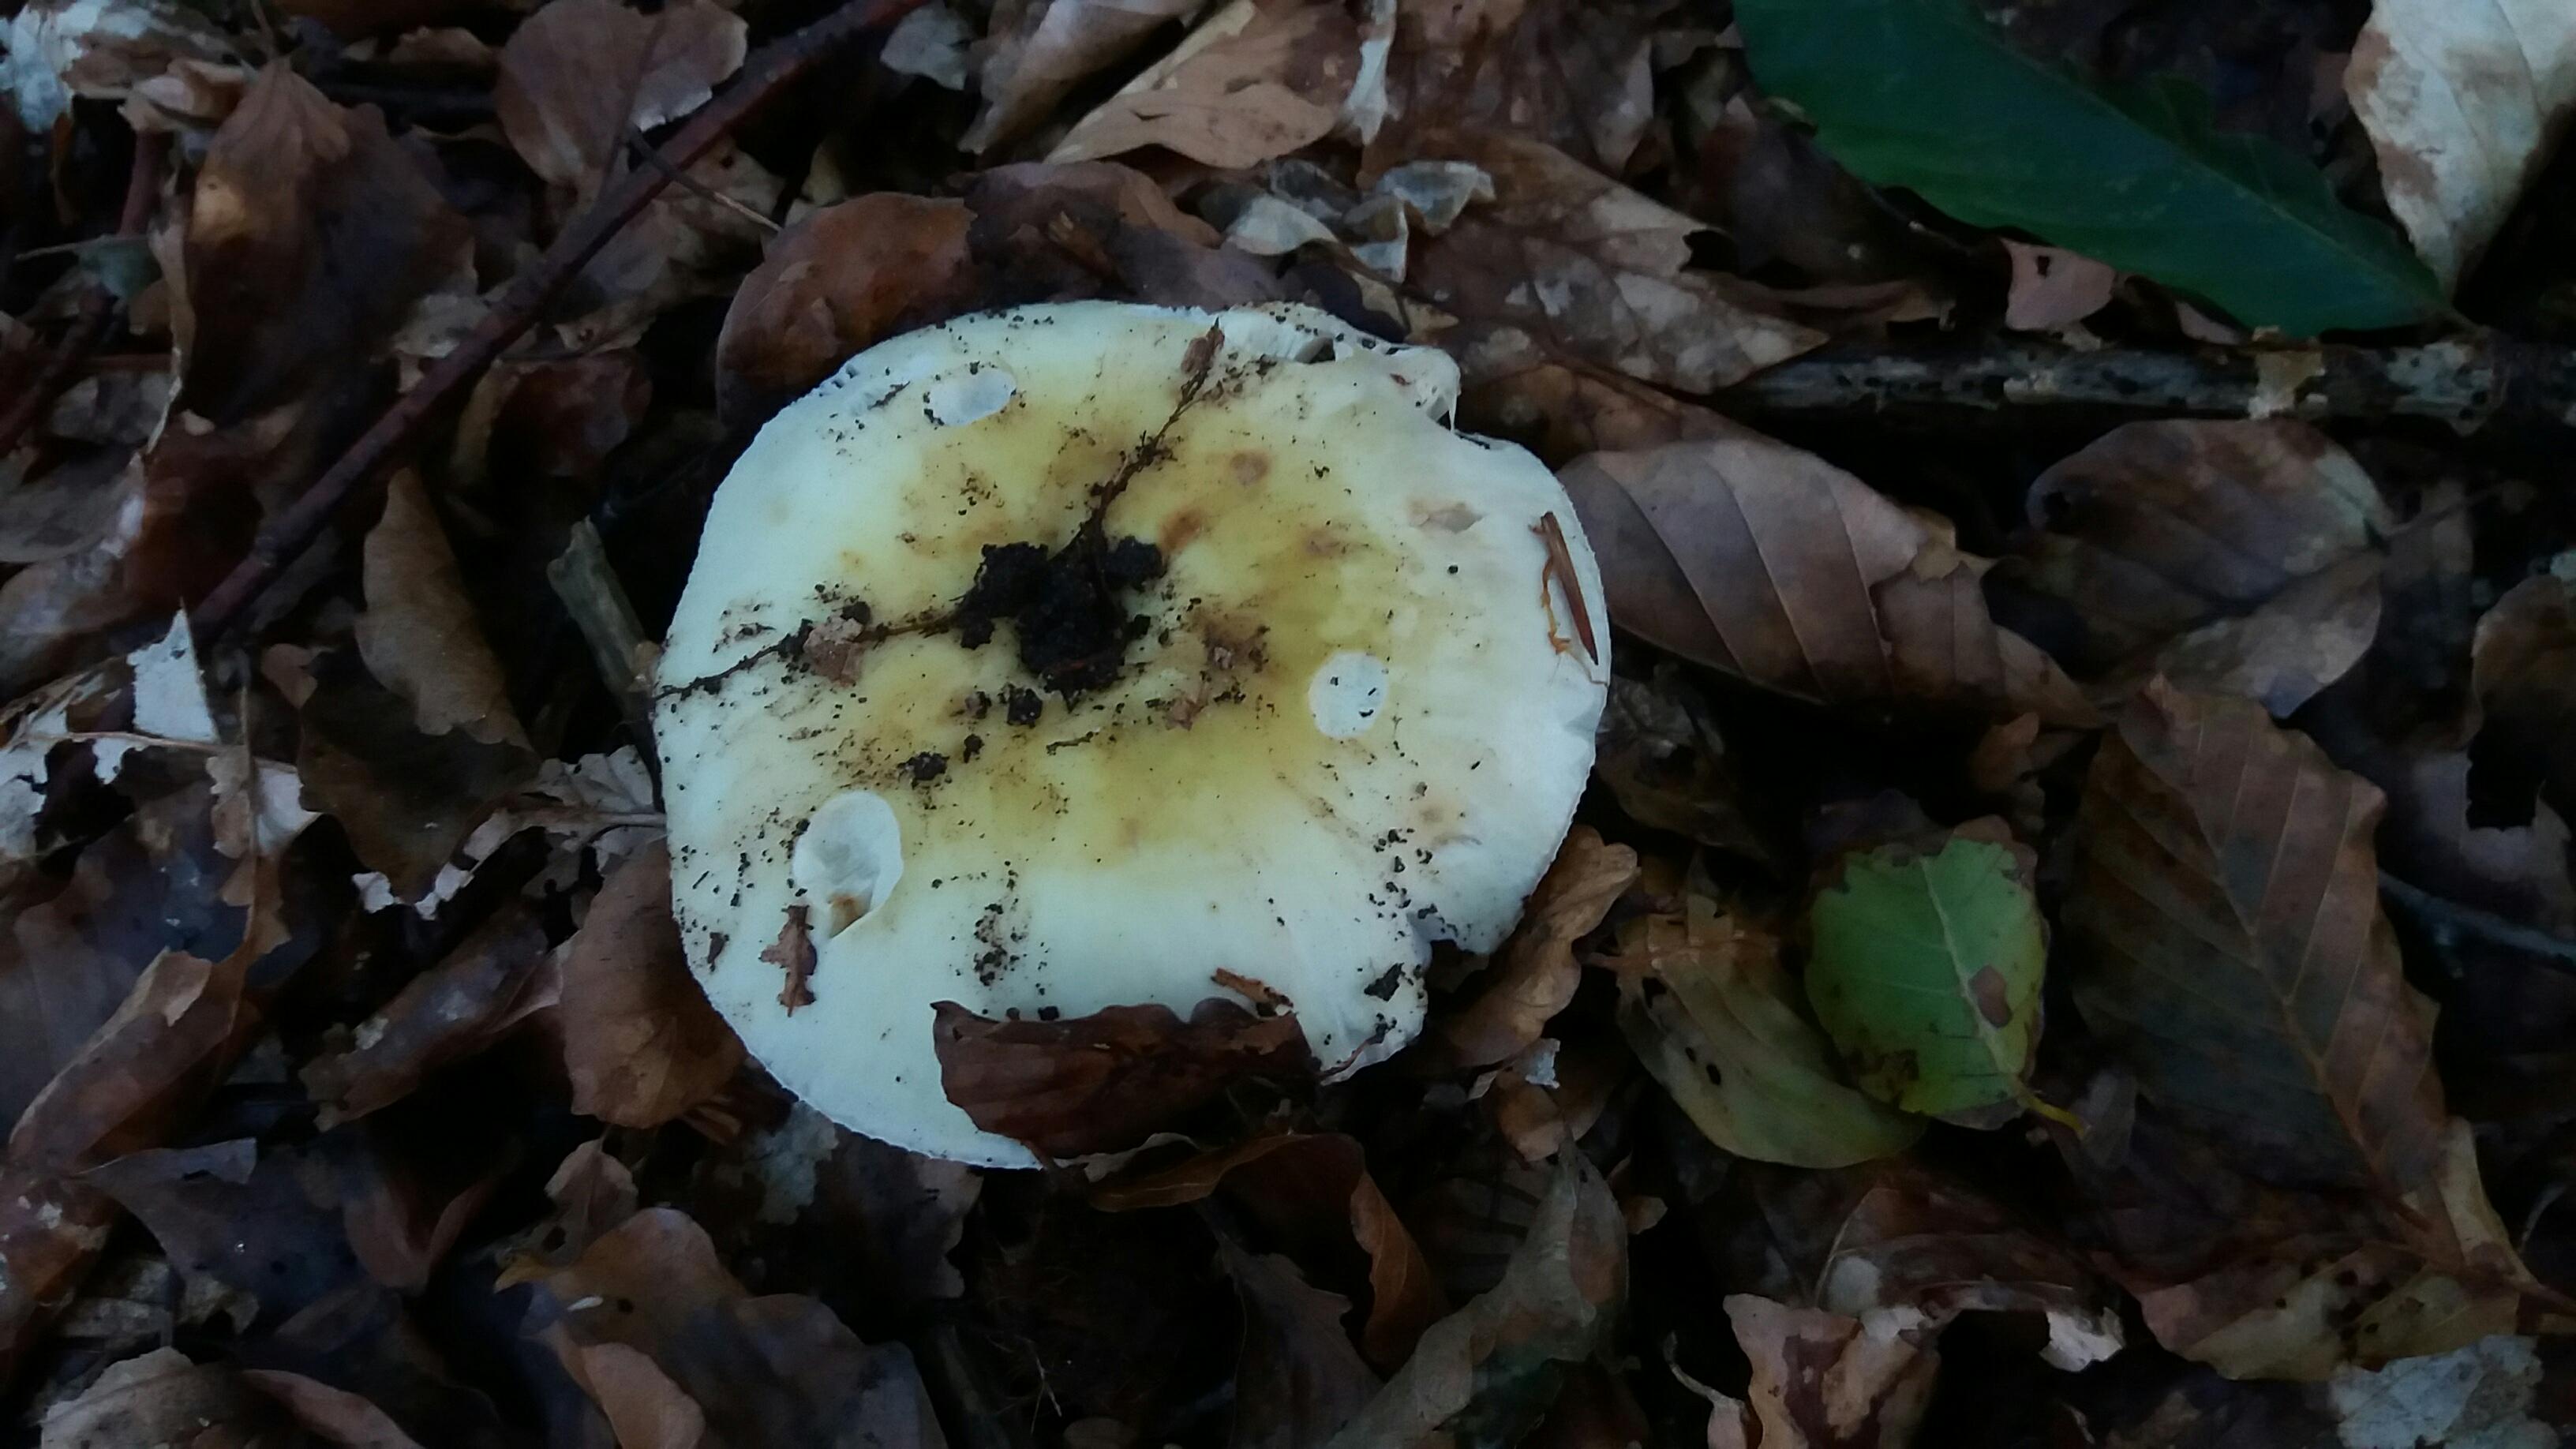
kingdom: Fungi
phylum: Basidiomycota
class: Agaricomycetes
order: Russulales
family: Russulaceae
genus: Russula
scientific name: Russula violeipes
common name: ferskengul skørhat
